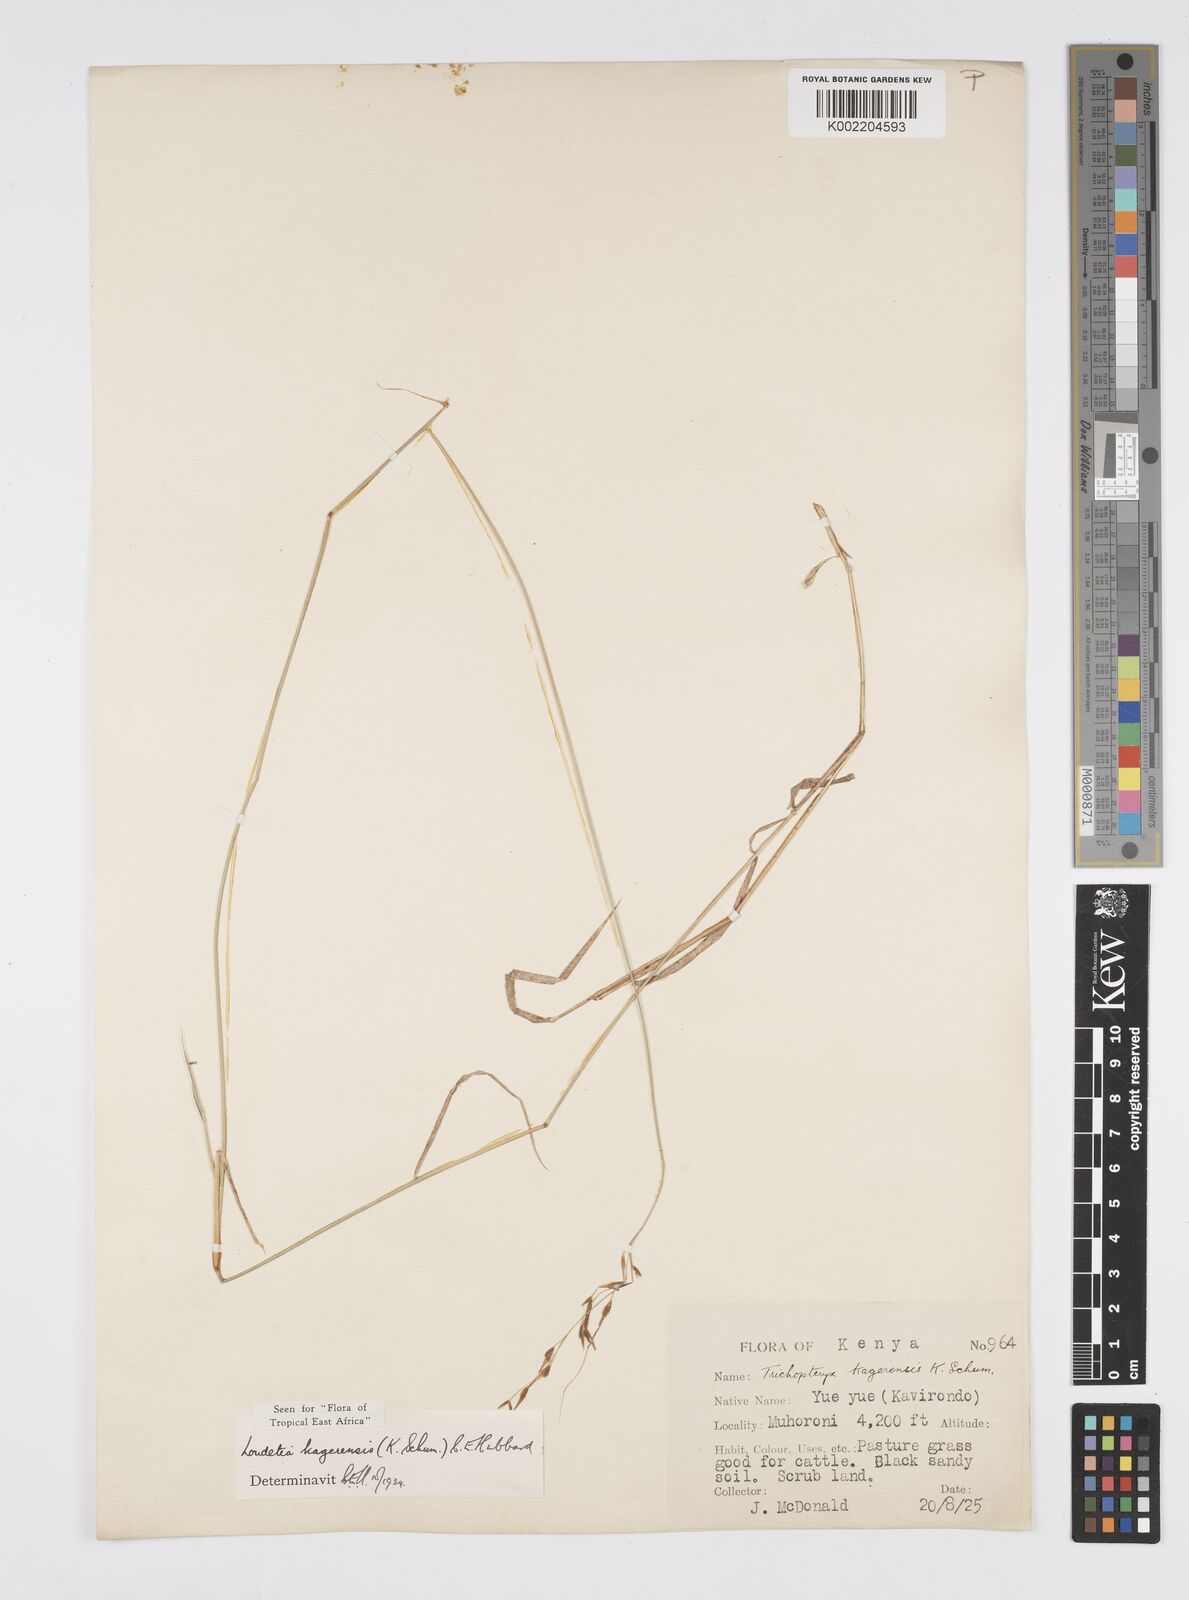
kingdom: Plantae
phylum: Tracheophyta
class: Liliopsida
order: Poales
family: Poaceae
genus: Loudetia
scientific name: Loudetia kagerensis
